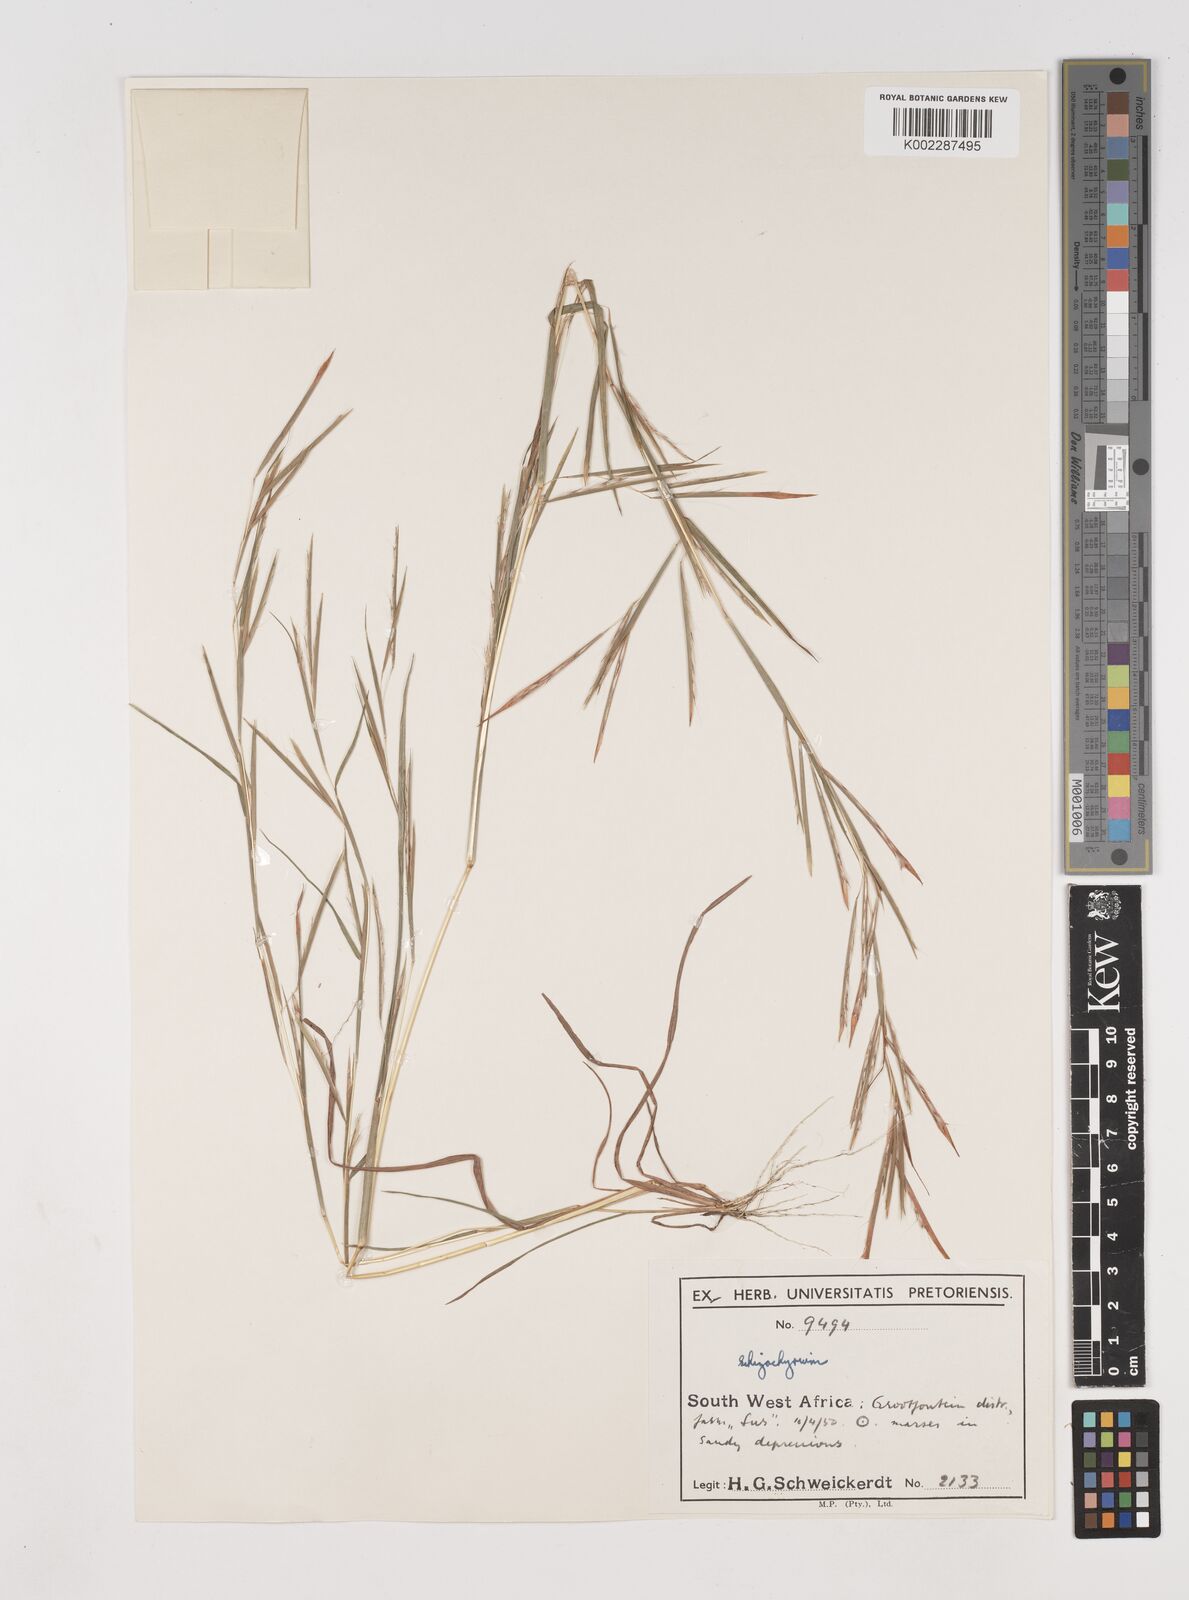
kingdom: Plantae
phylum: Tracheophyta
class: Liliopsida
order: Poales
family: Poaceae
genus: Schizachyrium
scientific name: Schizachyrium exile
